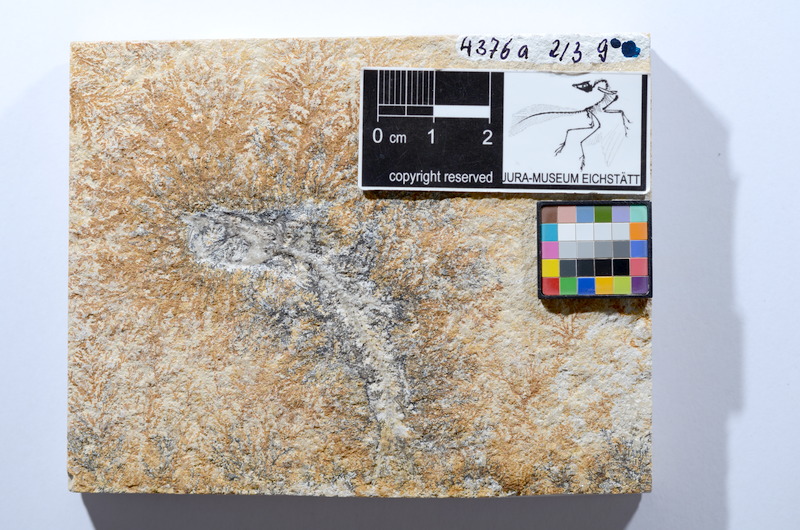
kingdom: Animalia
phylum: Chordata
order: Salmoniformes
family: Orthogonikleithridae
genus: Leptolepides
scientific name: Leptolepides sprattiformis
